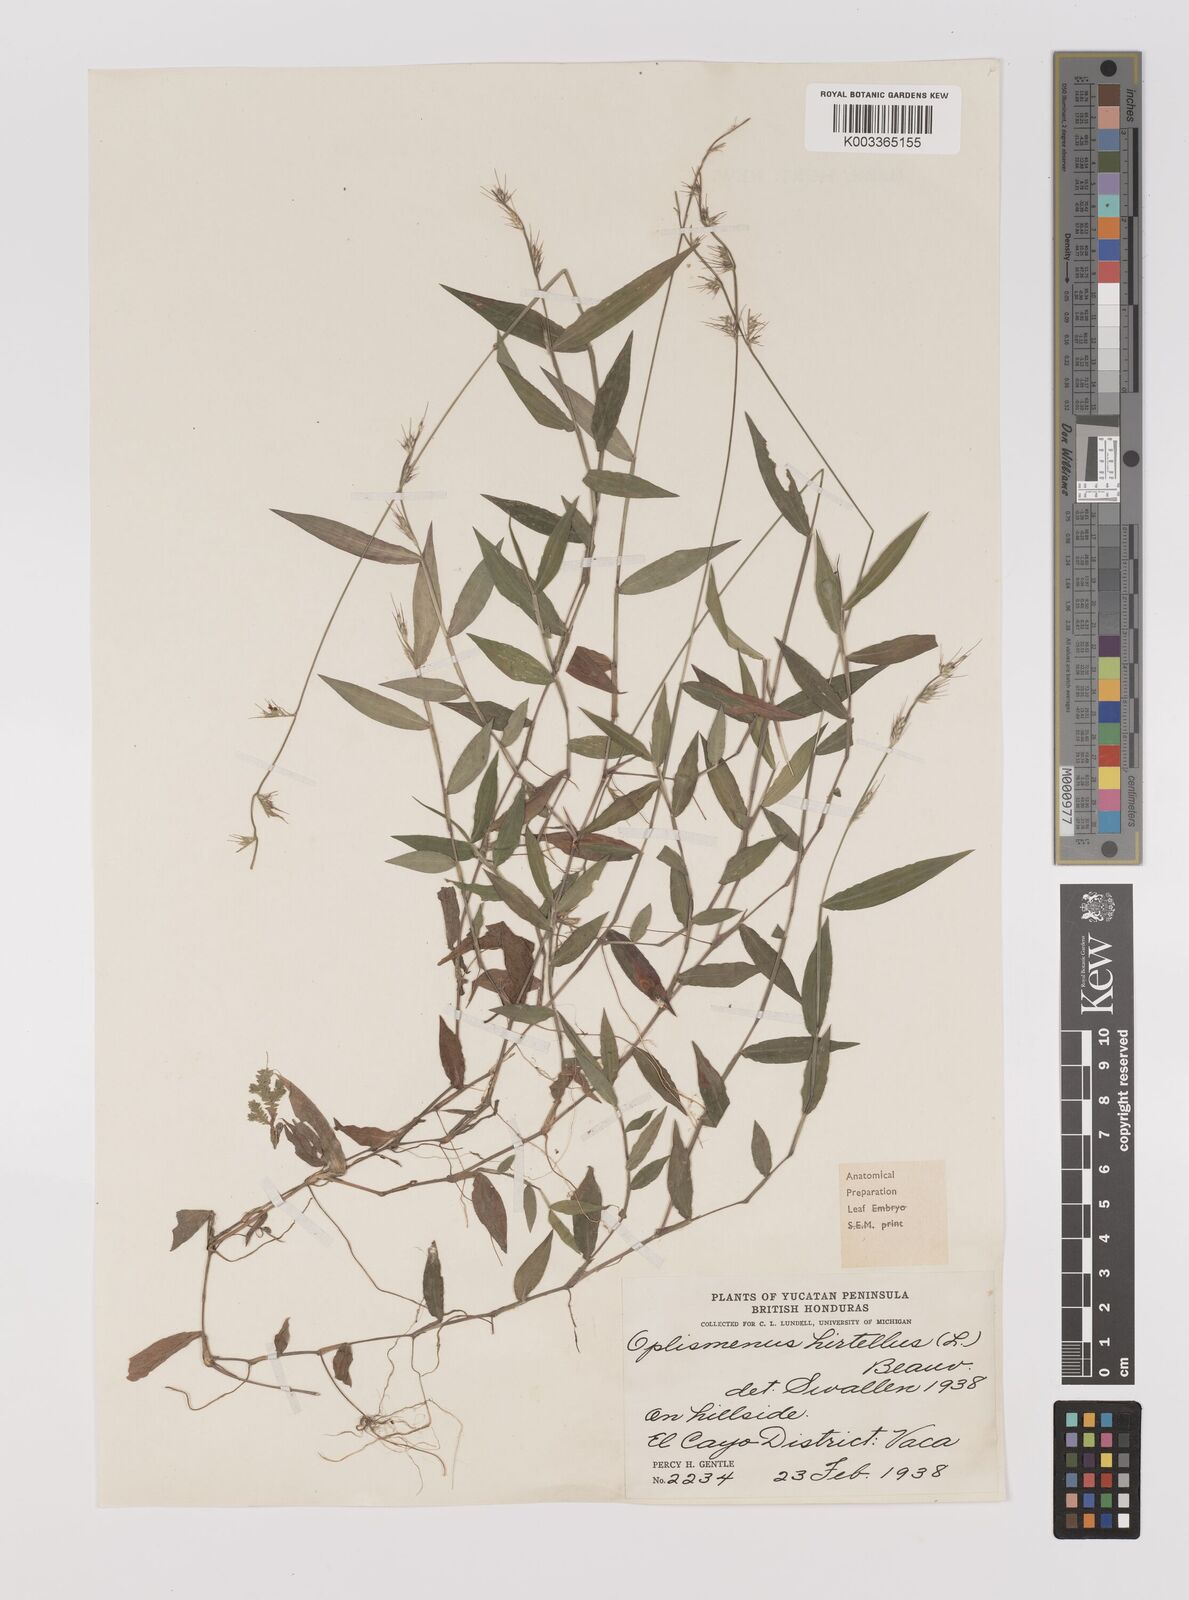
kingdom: Plantae
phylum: Tracheophyta
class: Liliopsida
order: Poales
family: Poaceae
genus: Oplismenus
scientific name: Oplismenus hirtellus
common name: Basketgrass
